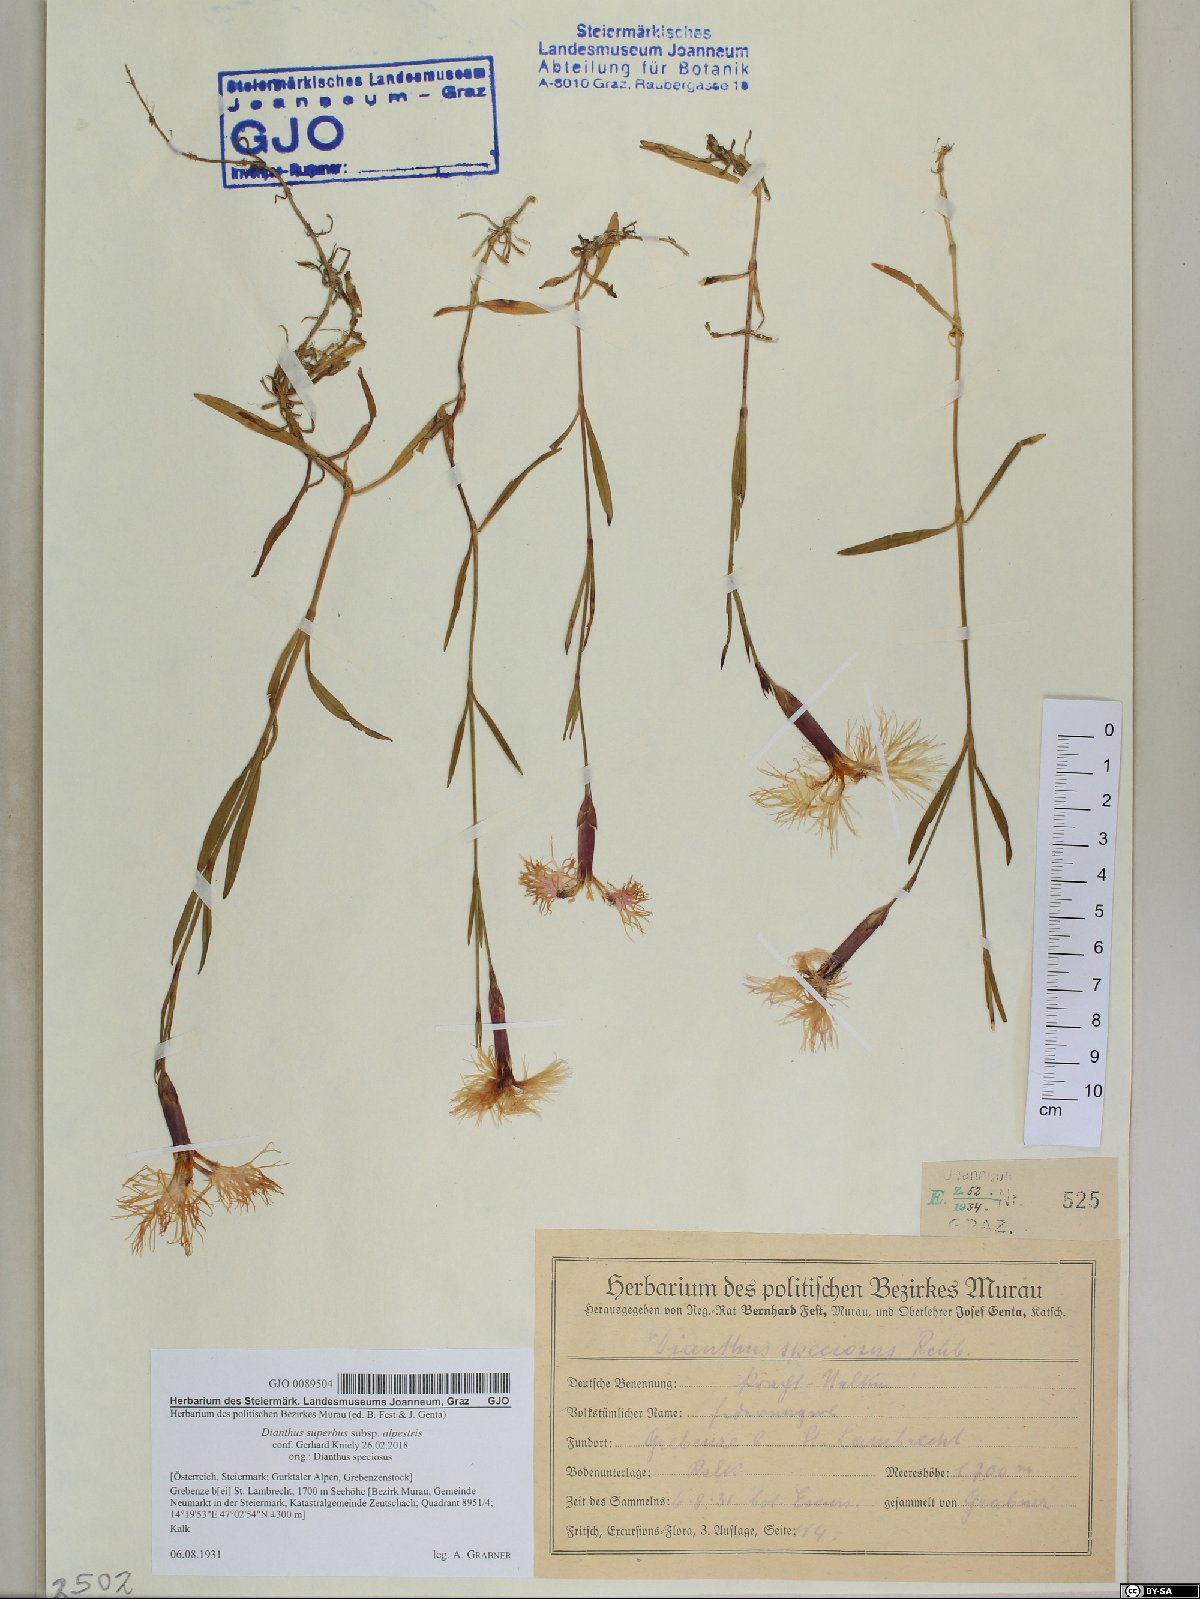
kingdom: Plantae
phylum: Tracheophyta
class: Magnoliopsida
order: Caryophyllales
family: Caryophyllaceae
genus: Dianthus
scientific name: Dianthus superbus
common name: Fringed pink
